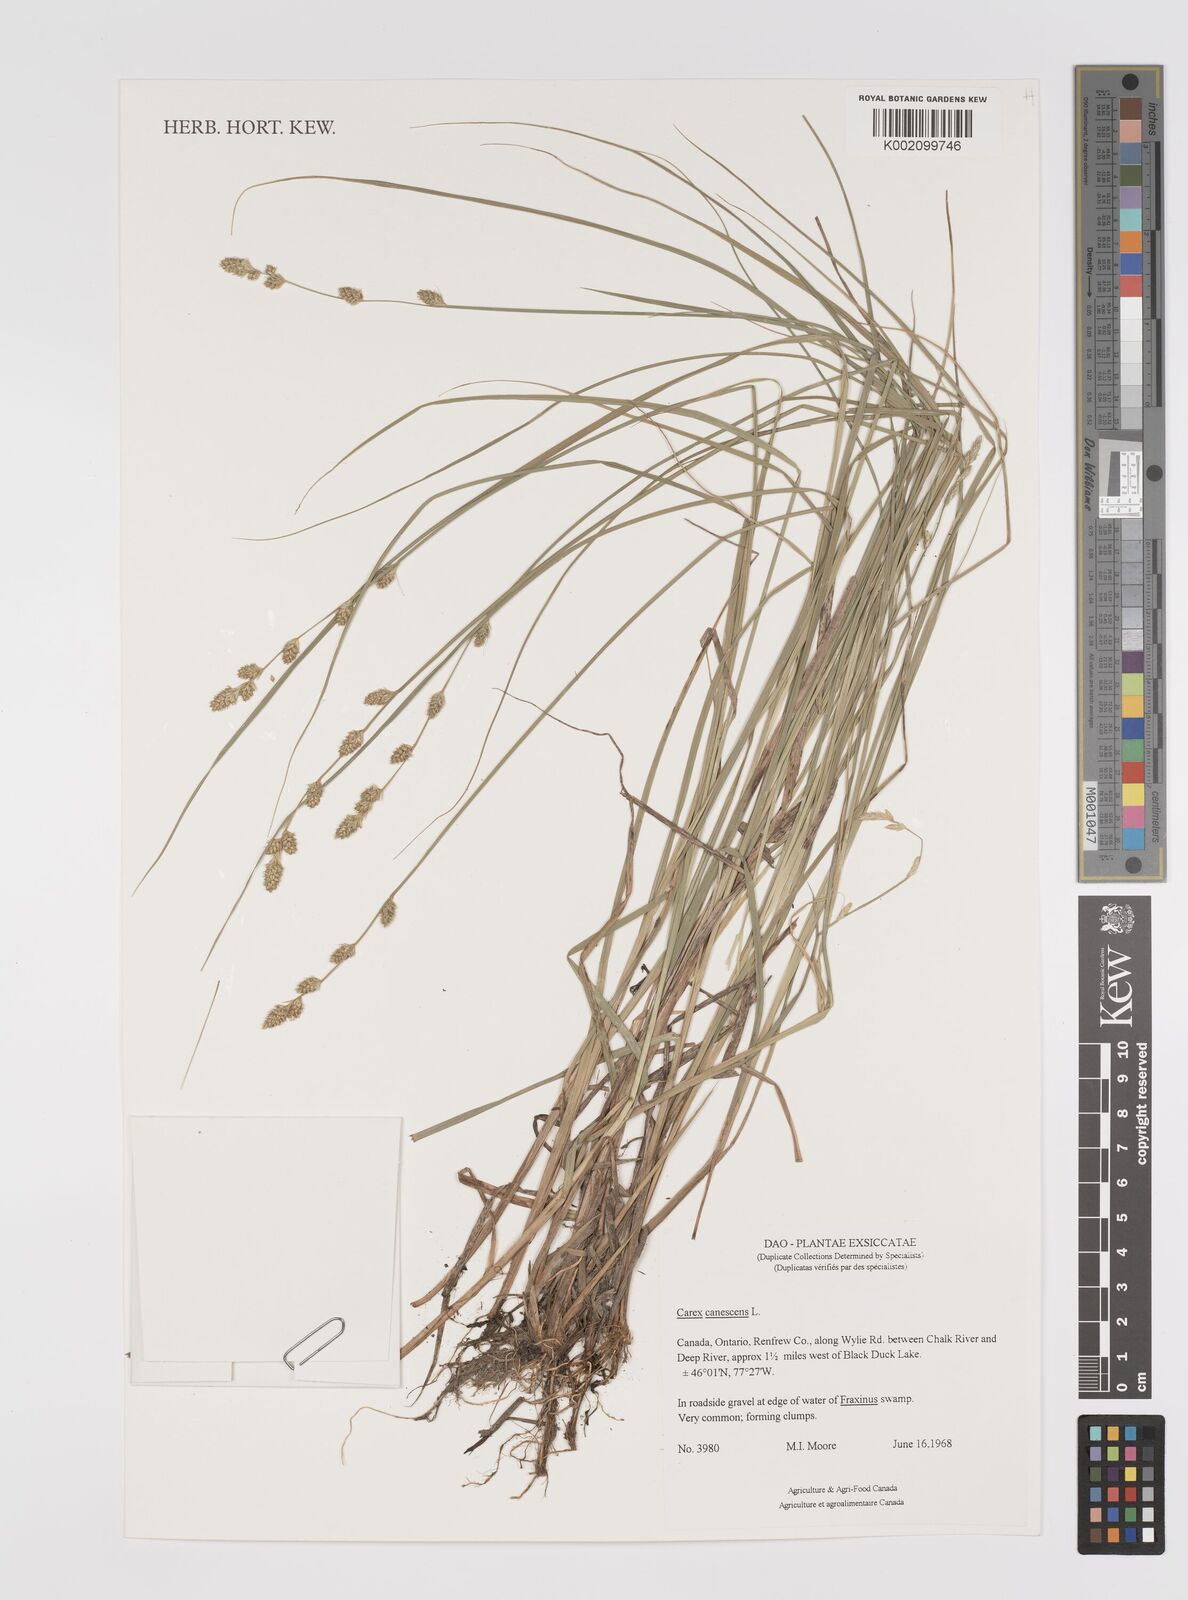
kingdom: Plantae
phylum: Tracheophyta
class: Liliopsida
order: Poales
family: Cyperaceae
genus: Carex
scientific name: Carex curta
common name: White sedge
